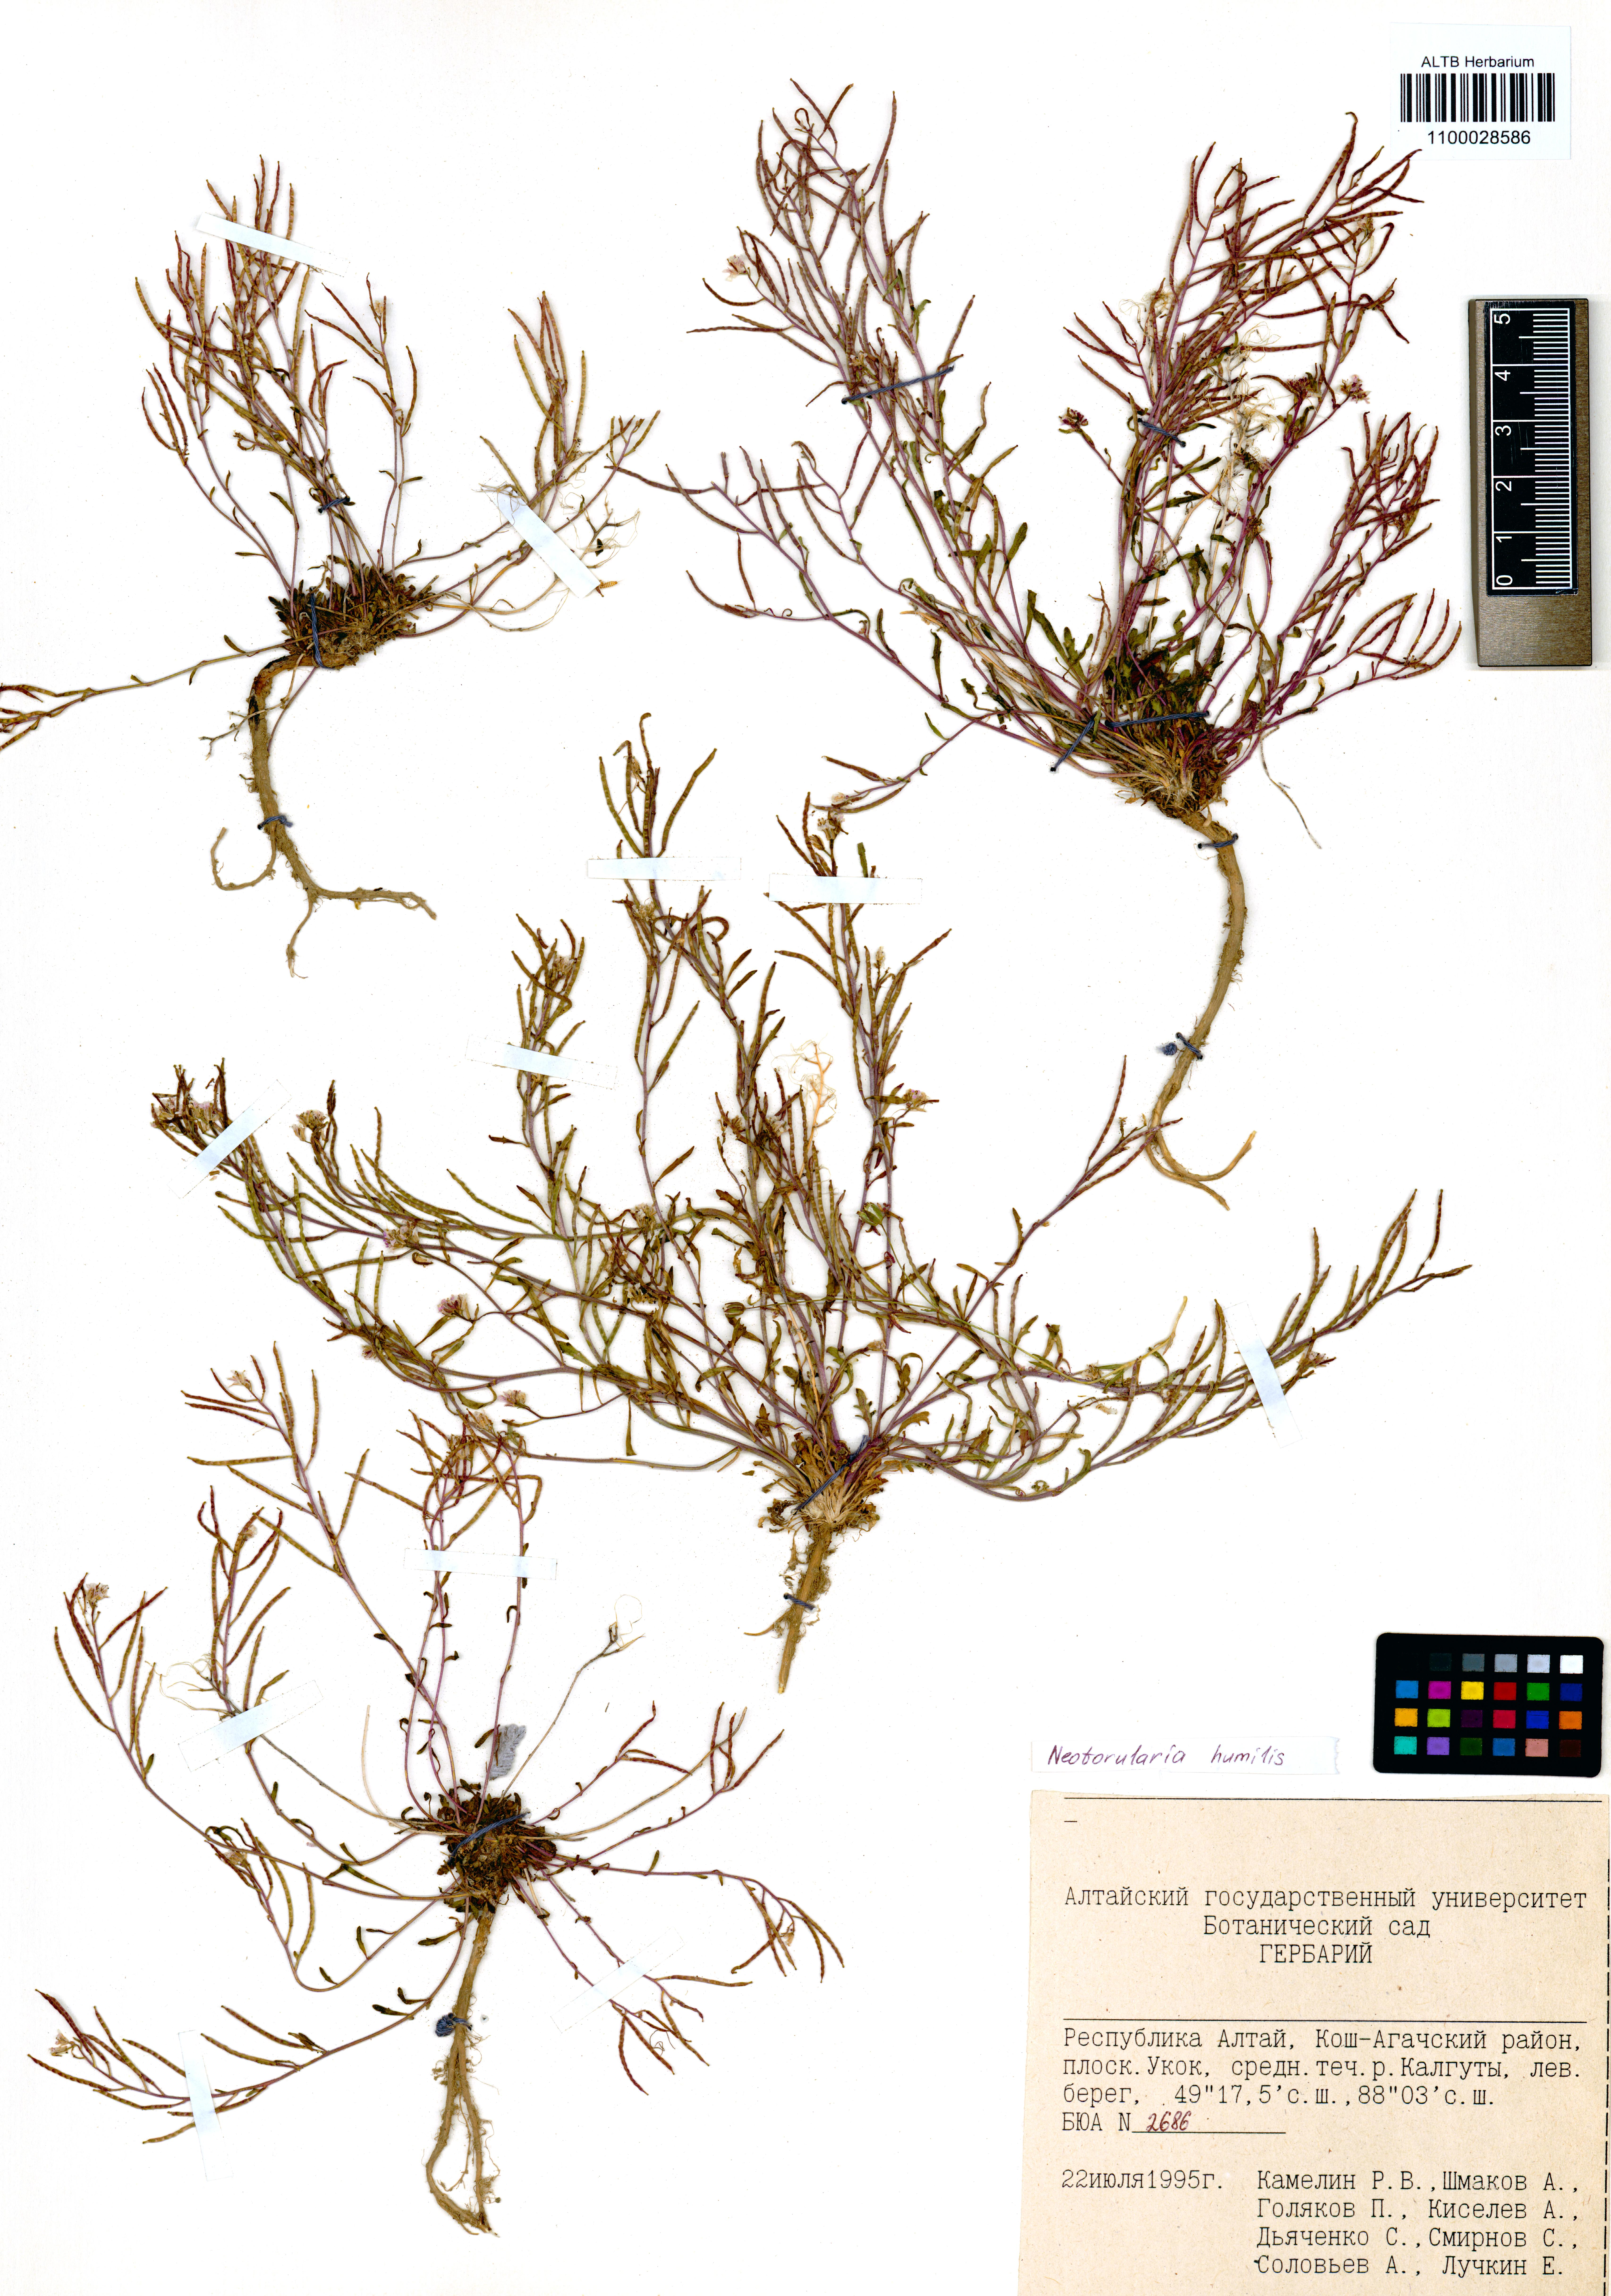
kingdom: Plantae
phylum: Tracheophyta
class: Magnoliopsida
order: Brassicales
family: Brassicaceae
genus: Braya
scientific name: Braya humilis
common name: Alpine northern rockcress
